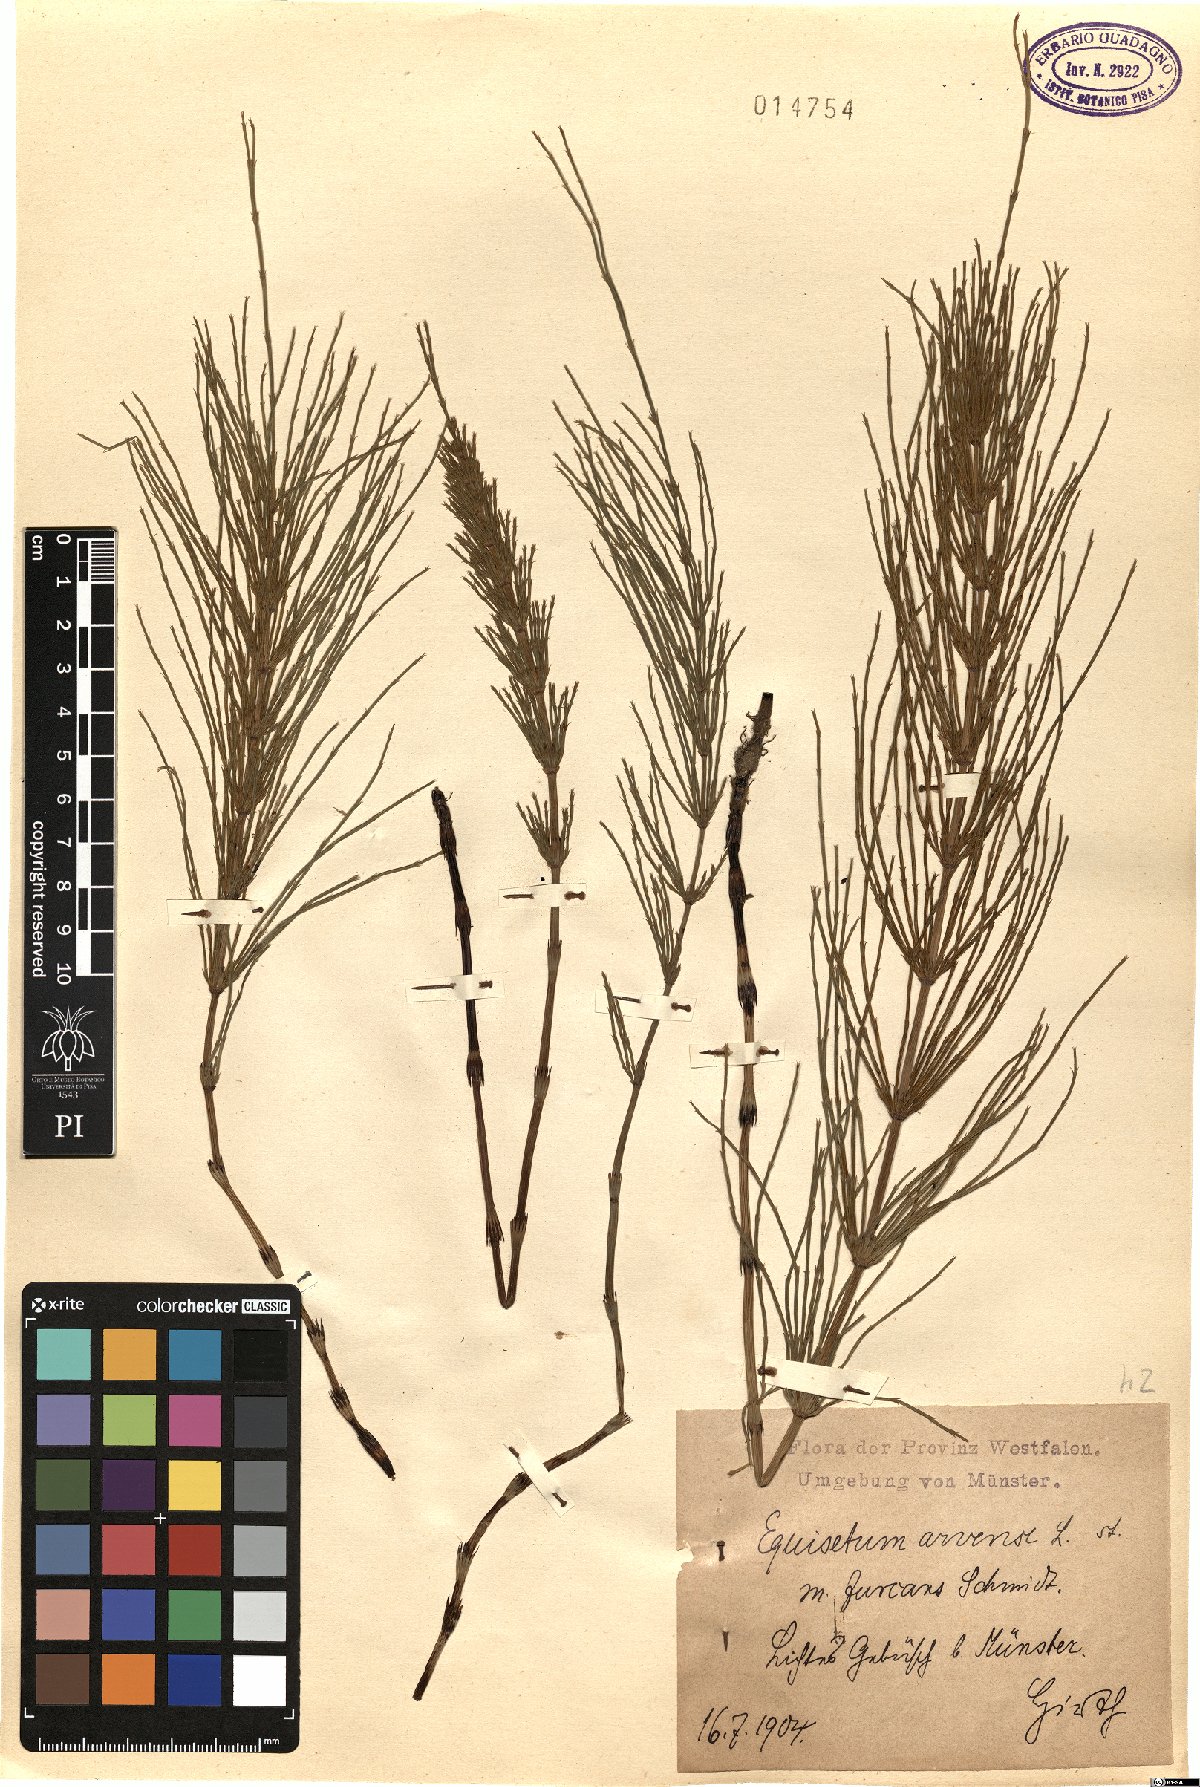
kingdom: Plantae
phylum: Tracheophyta
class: Polypodiopsida
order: Equisetales
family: Equisetaceae
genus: Equisetum
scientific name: Equisetum arvense
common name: Field horsetail
